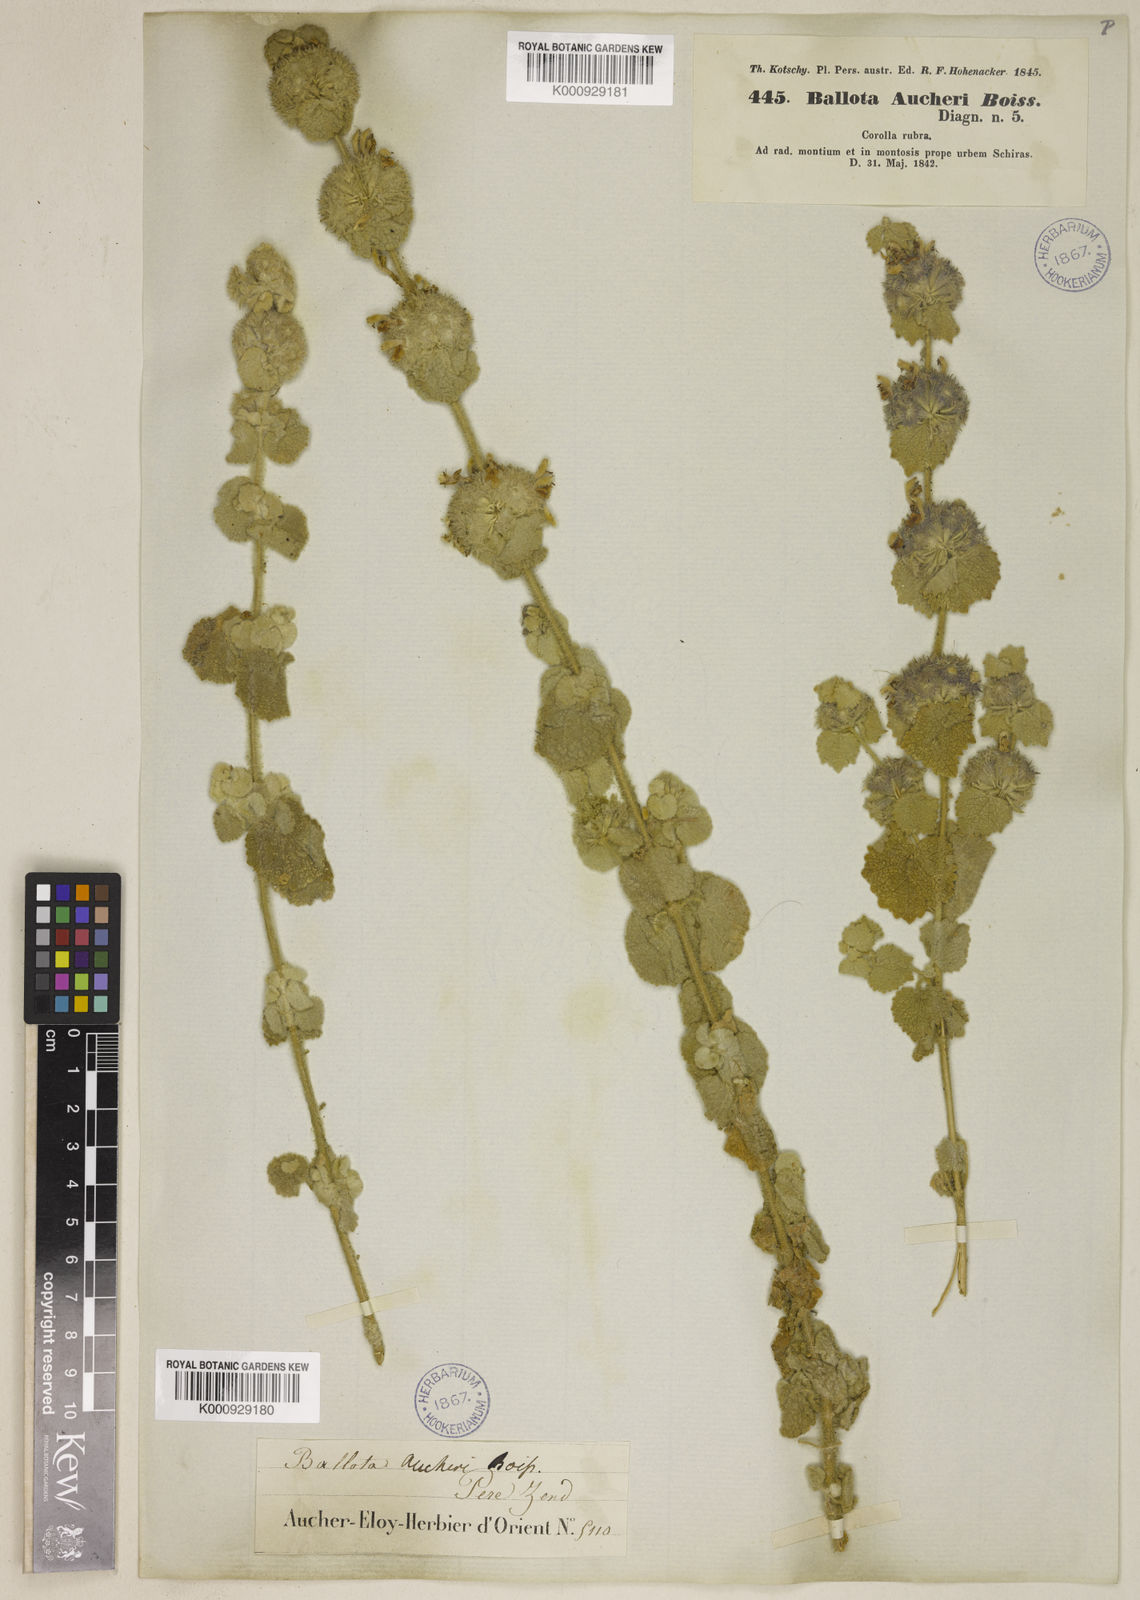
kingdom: Plantae
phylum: Tracheophyta
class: Magnoliopsida
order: Lamiales
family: Lamiaceae
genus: Pseudodictamnus
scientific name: Pseudodictamnus aucheri
